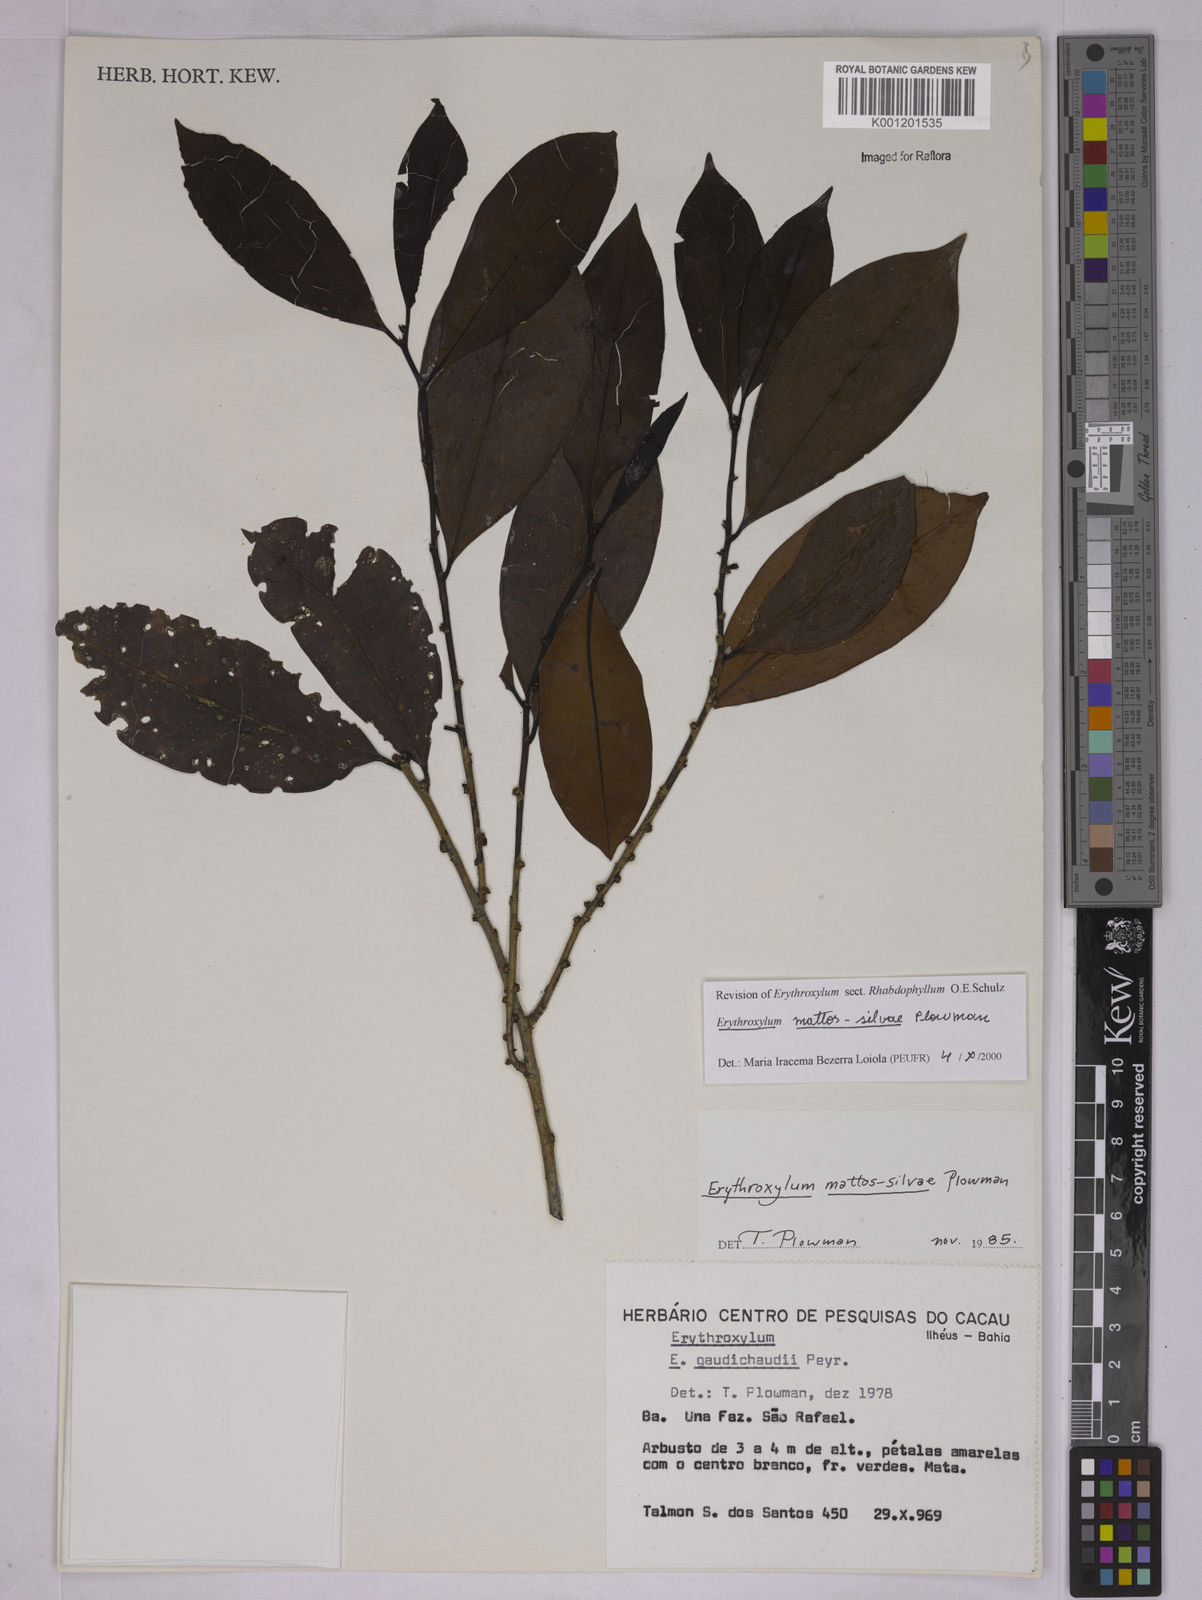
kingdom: Plantae
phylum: Tracheophyta
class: Magnoliopsida
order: Malpighiales
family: Erythroxylaceae
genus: Erythroxylum
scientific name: Erythroxylum mattos-silvae
